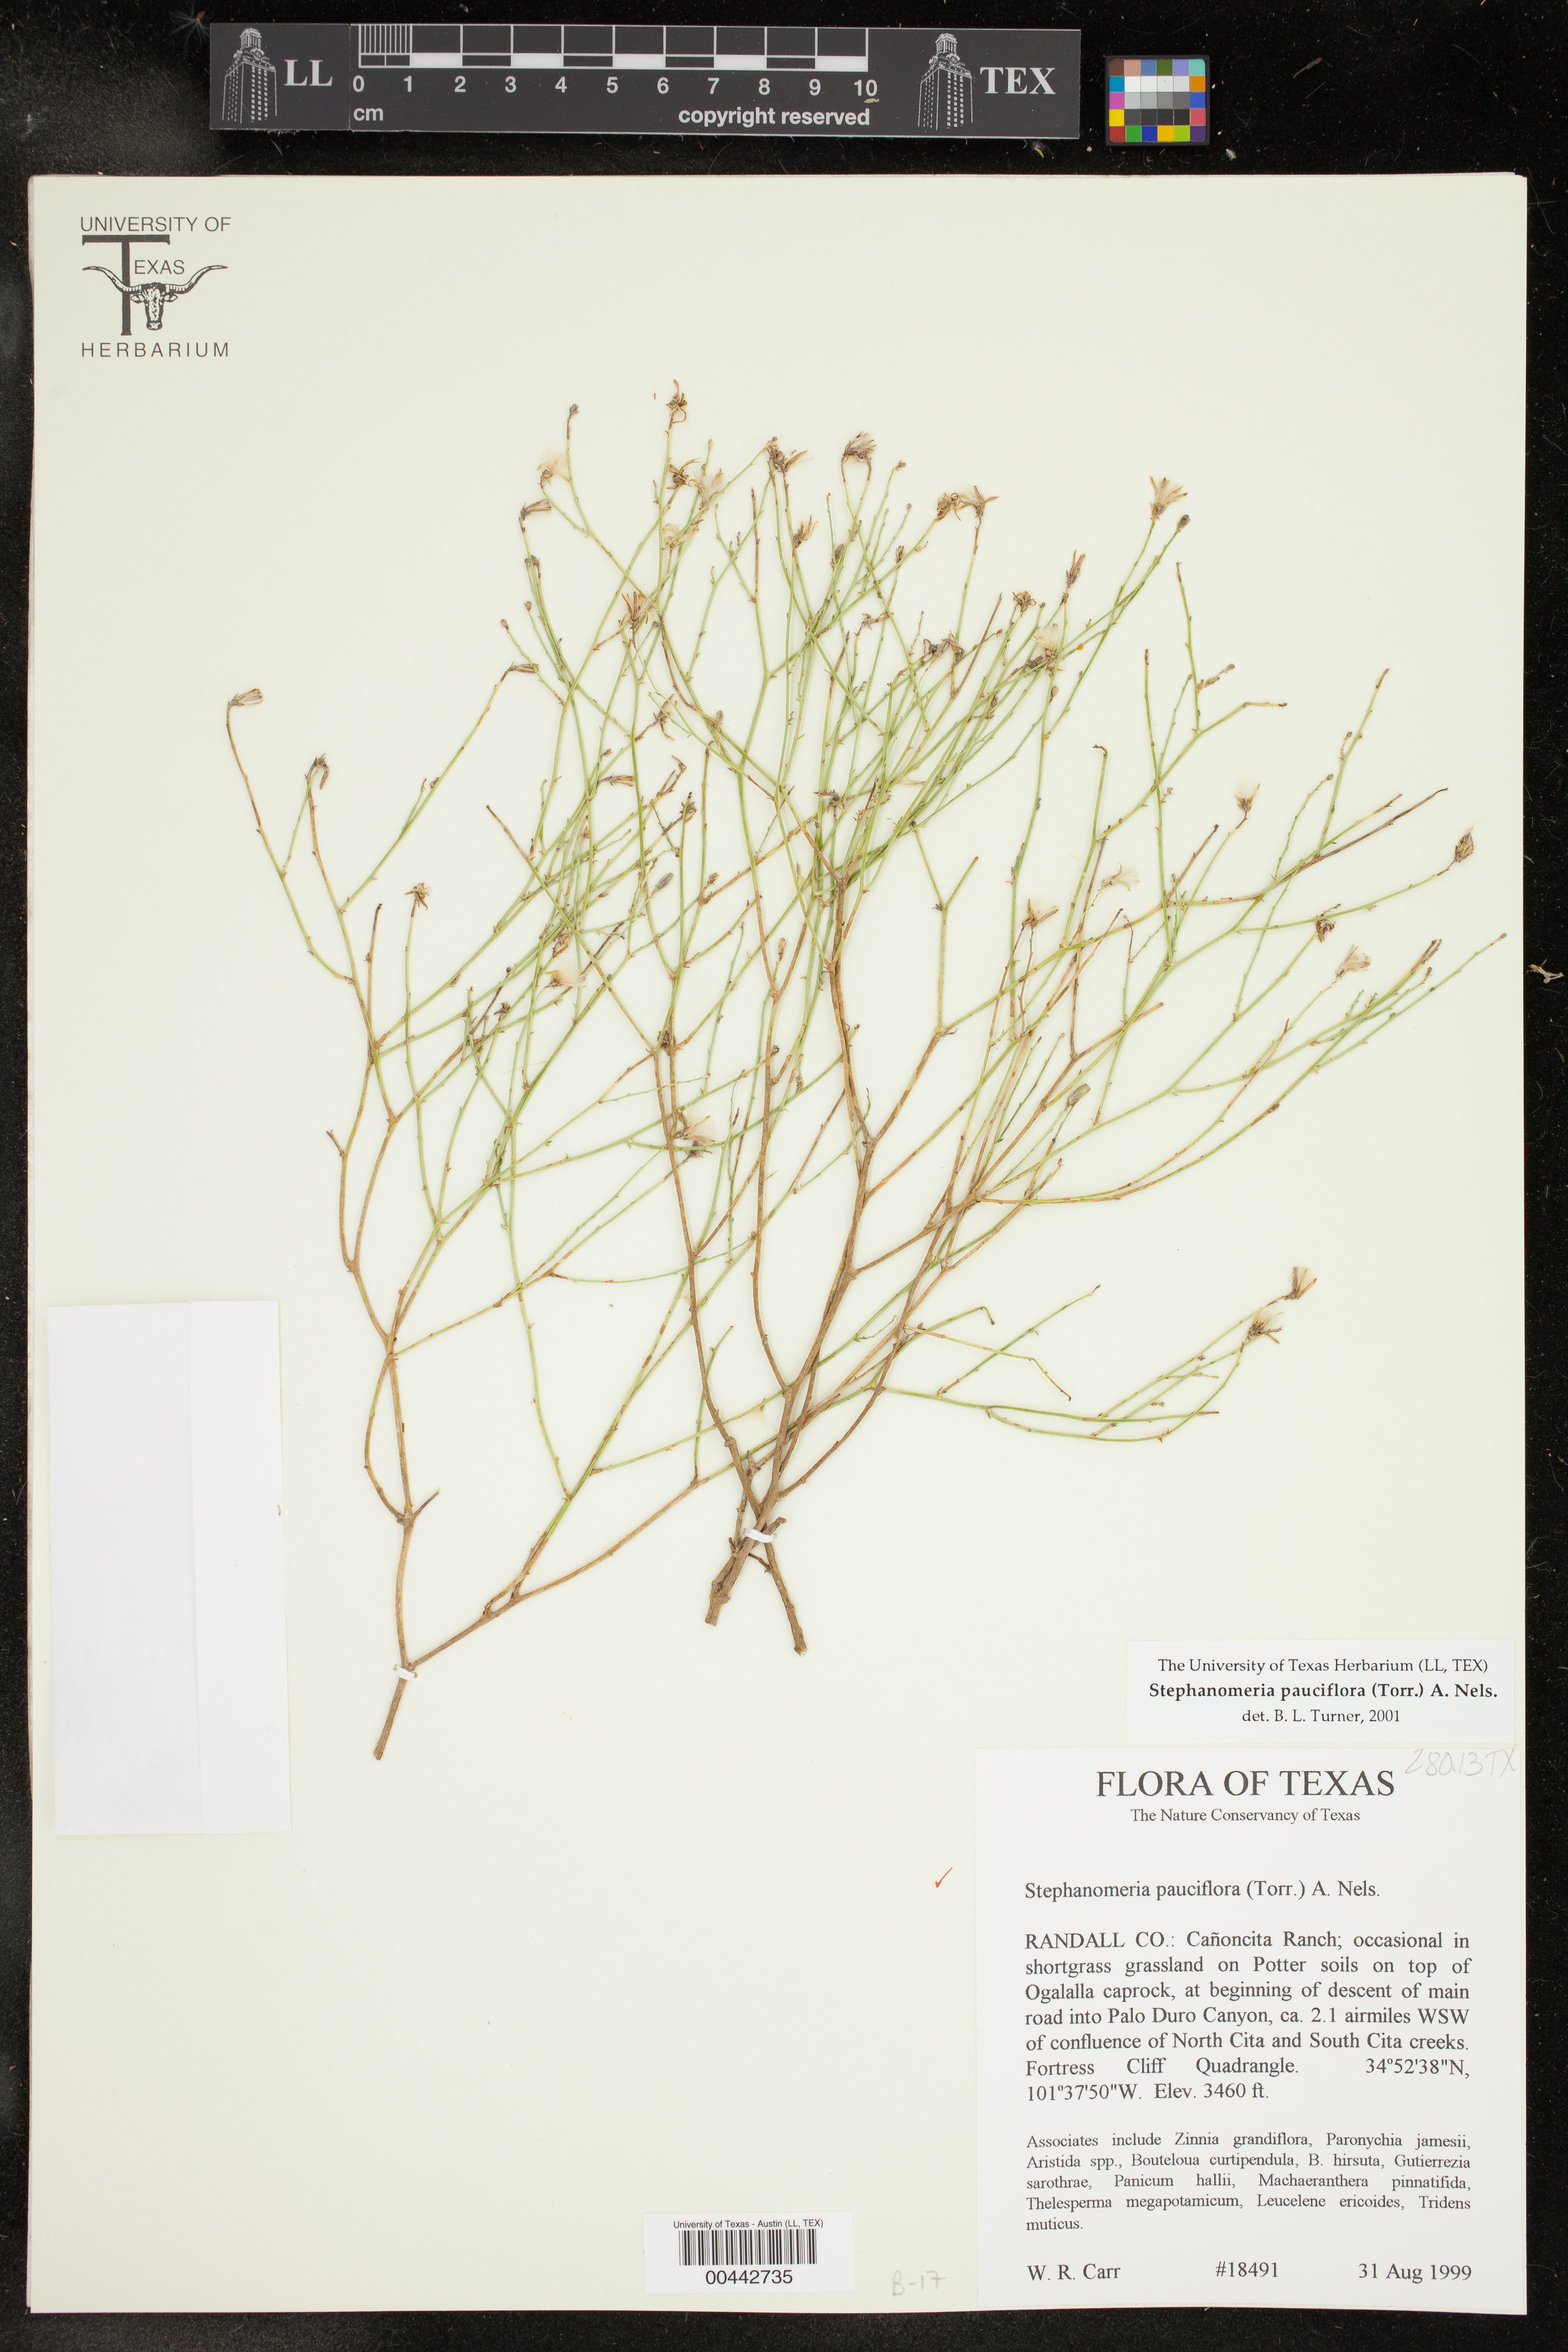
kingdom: Plantae
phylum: Tracheophyta
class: Magnoliopsida
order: Asterales
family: Asteraceae
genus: Stephanomeria
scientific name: Stephanomeria pauciflora
